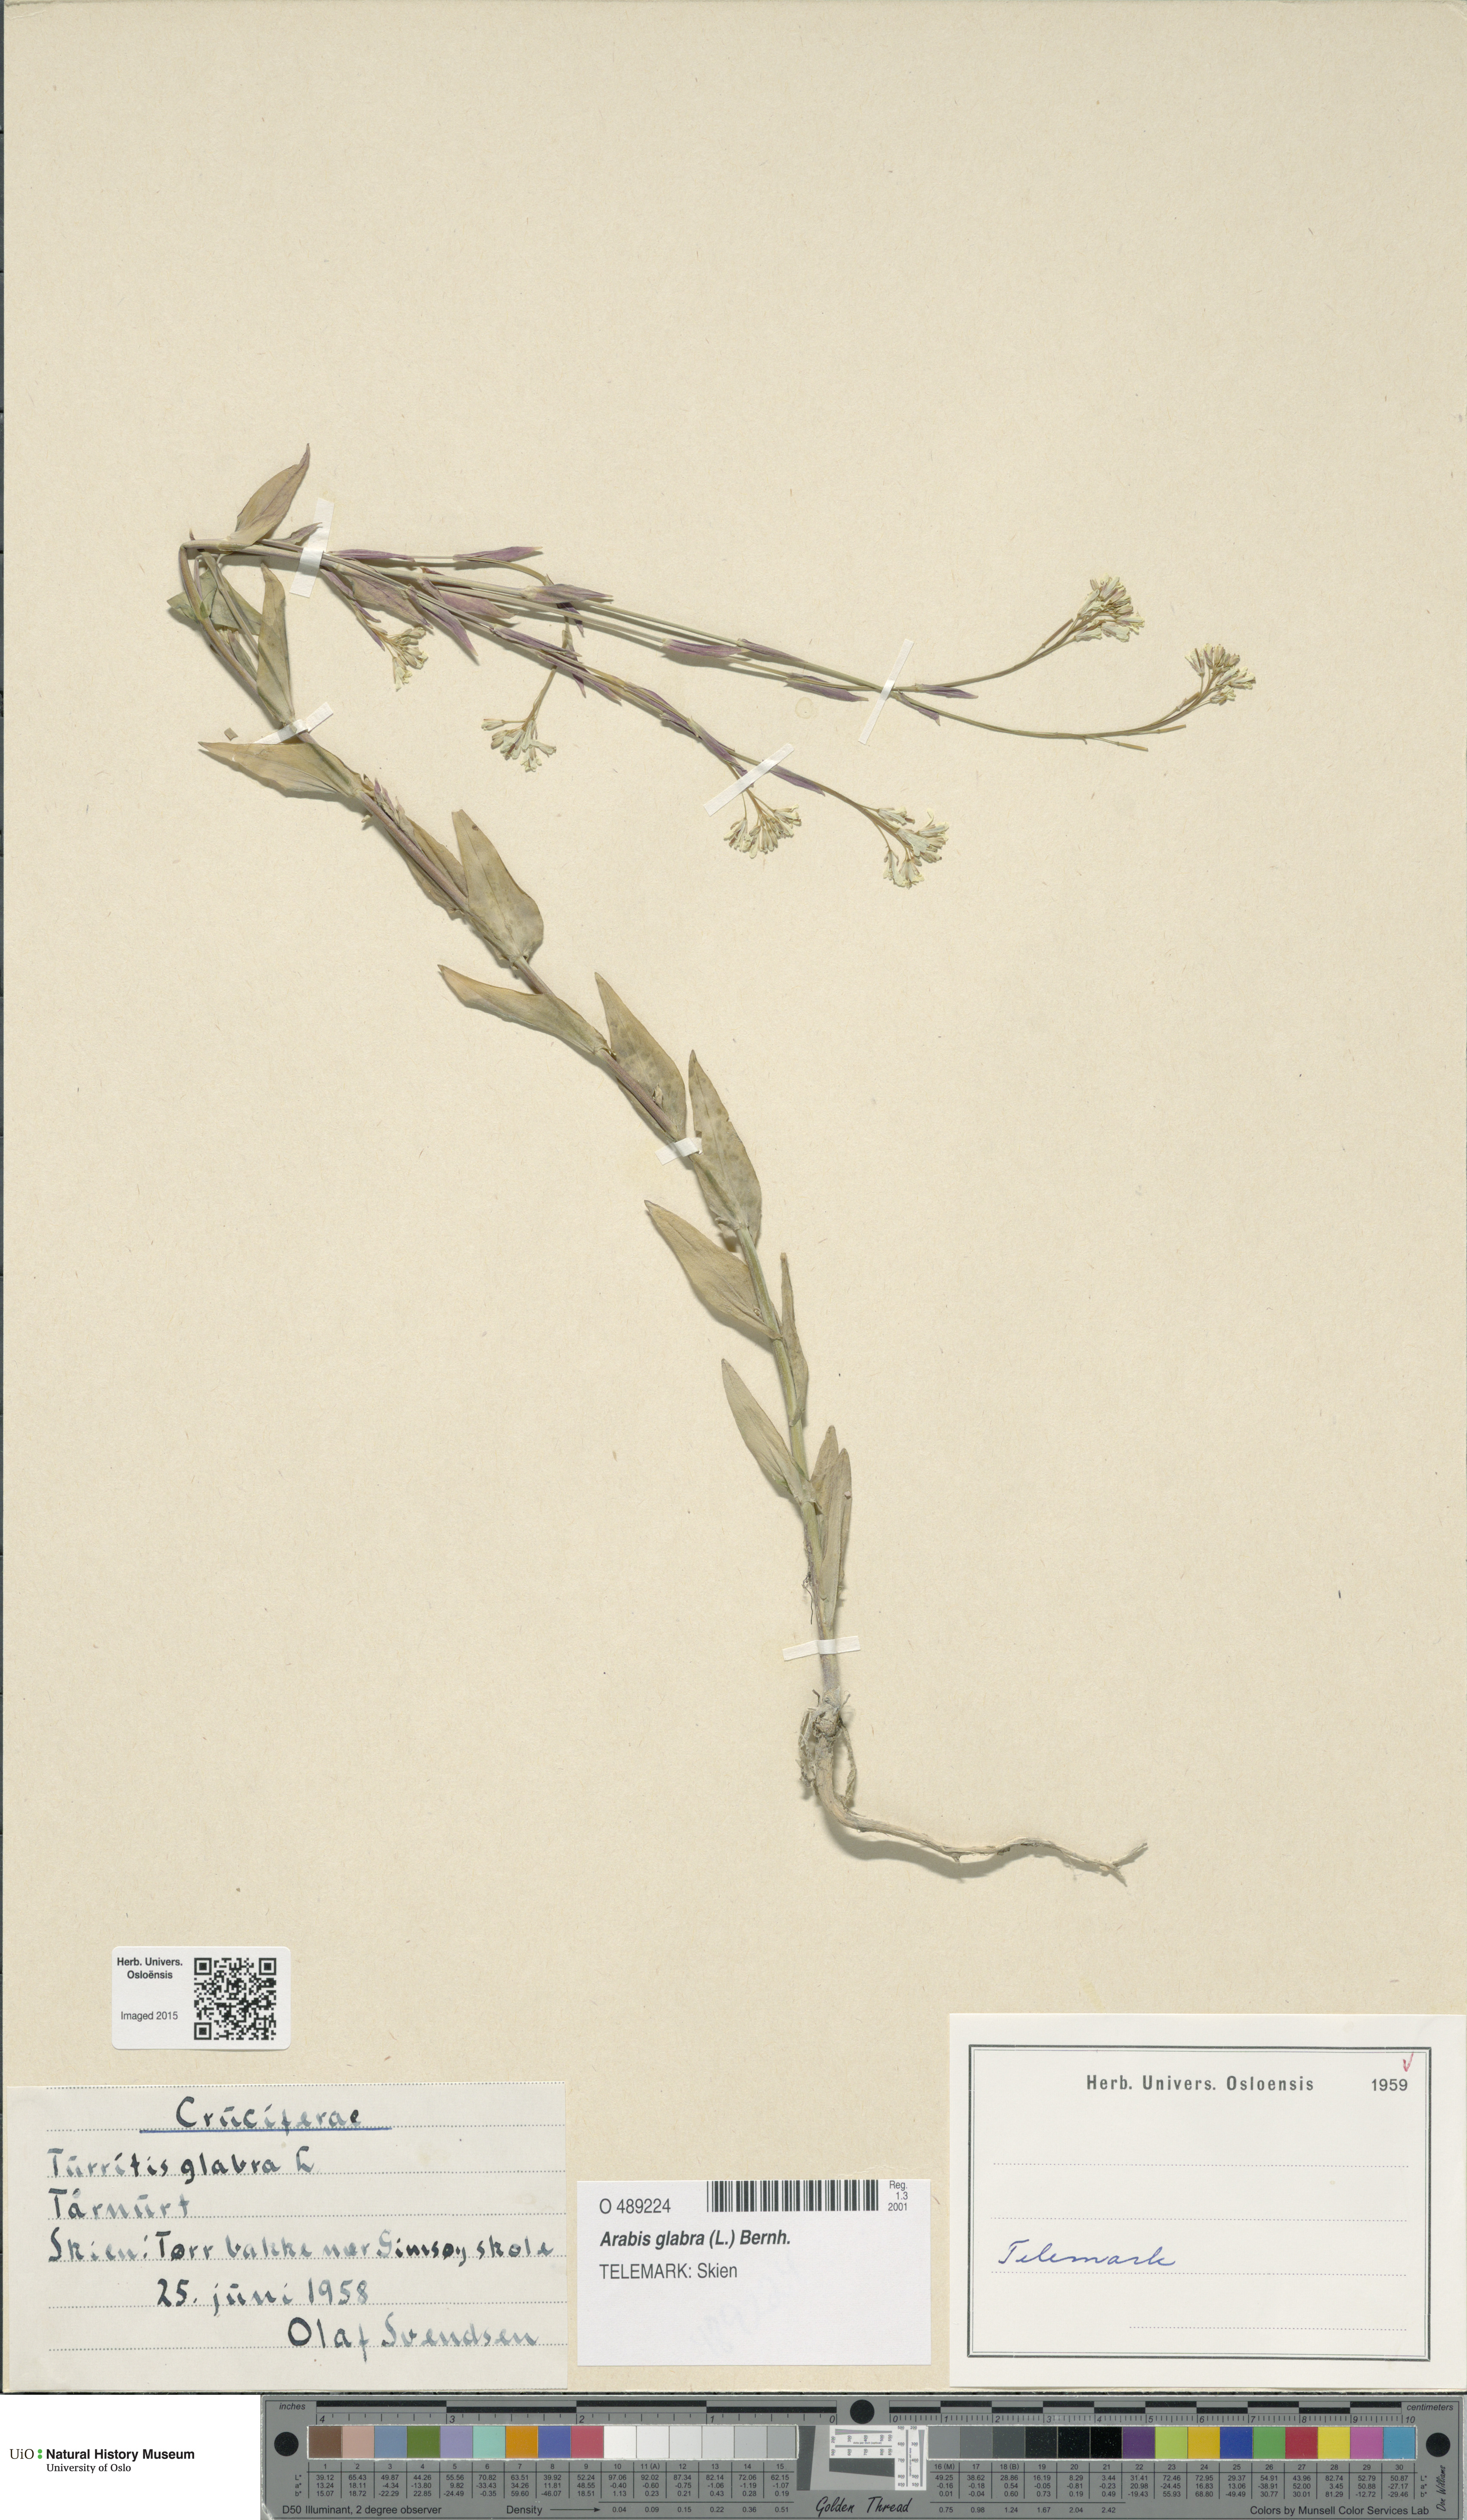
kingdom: Plantae
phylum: Tracheophyta
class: Magnoliopsida
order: Brassicales
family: Brassicaceae
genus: Turritis
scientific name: Turritis glabra
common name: Tower rockcress
